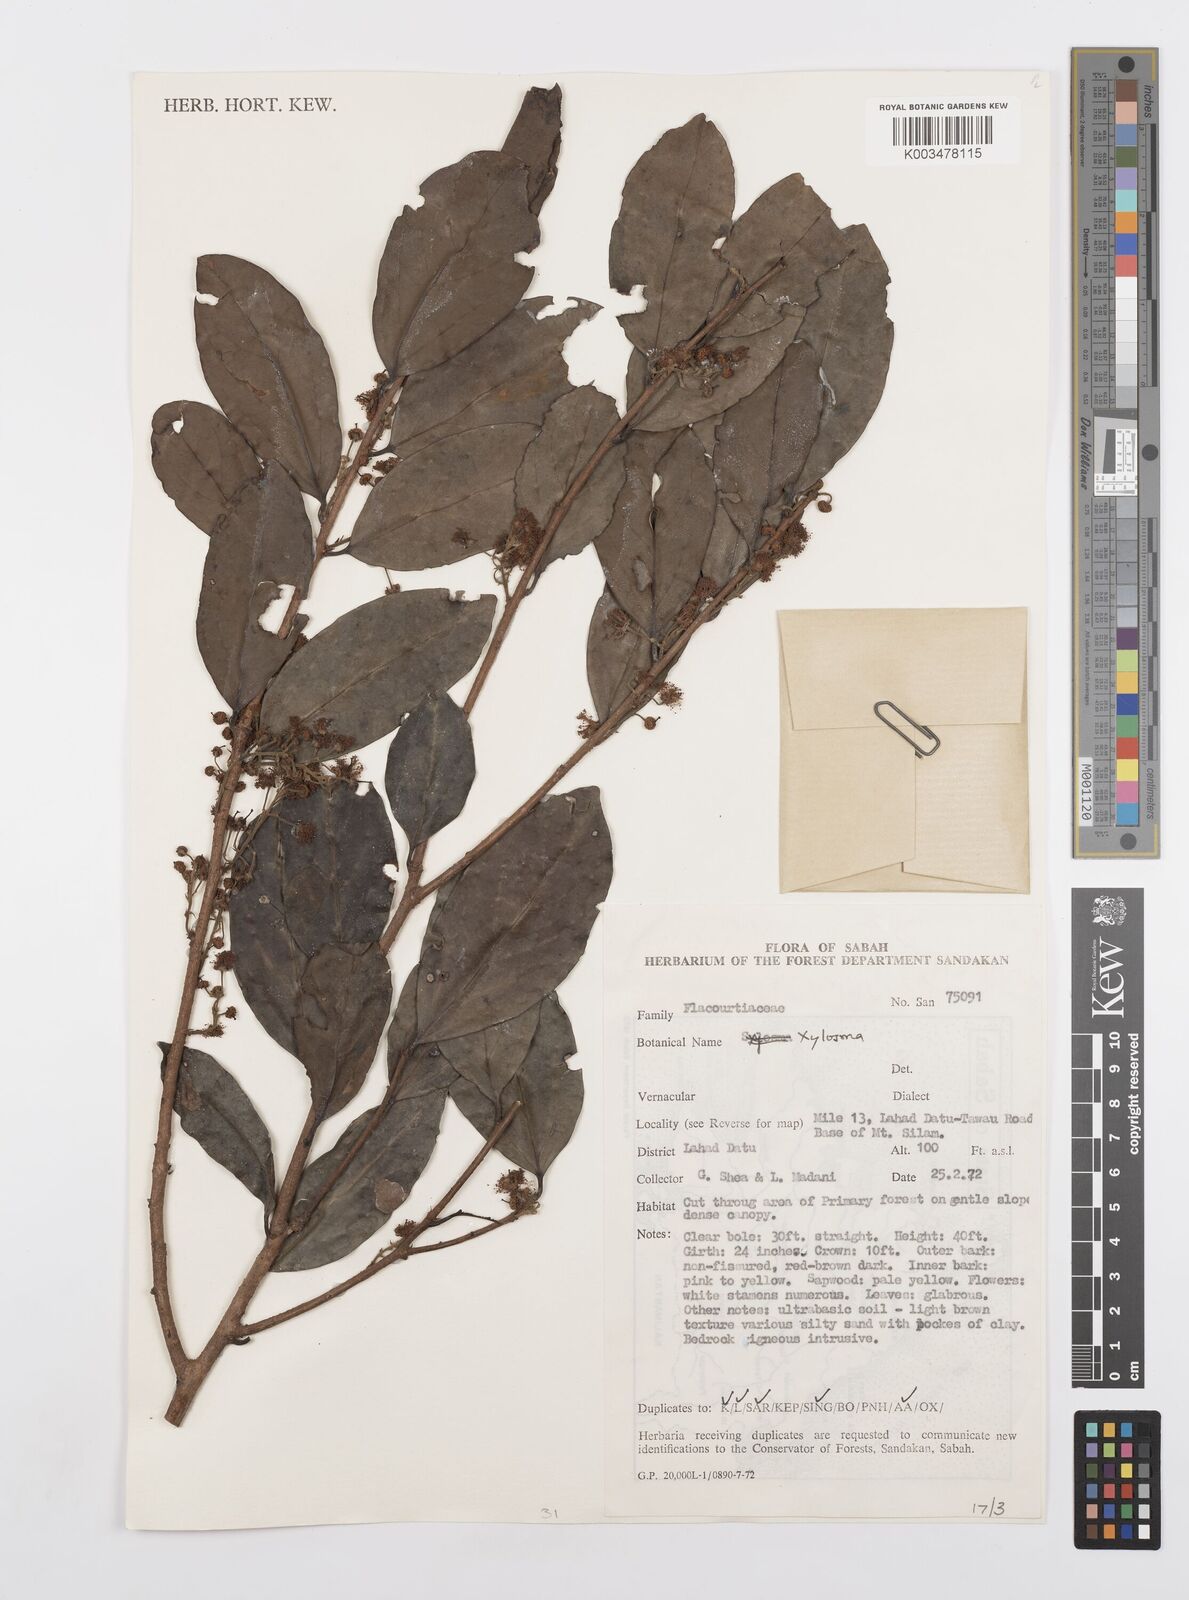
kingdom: Plantae
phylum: Tracheophyta
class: Magnoliopsida
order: Malpighiales
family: Salicaceae
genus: Scolopia
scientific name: Scolopia
